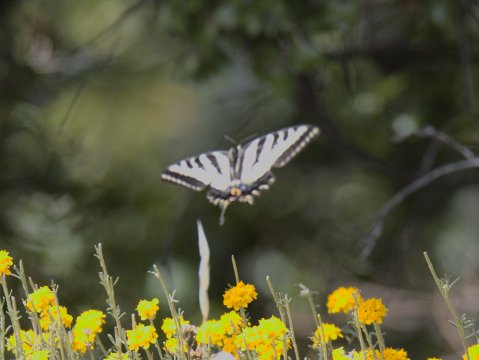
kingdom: Animalia
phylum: Arthropoda
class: Insecta
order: Lepidoptera
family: Papilionidae
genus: Pterourus
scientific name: Pterourus rutulus
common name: Western Tiger Swallowtail
